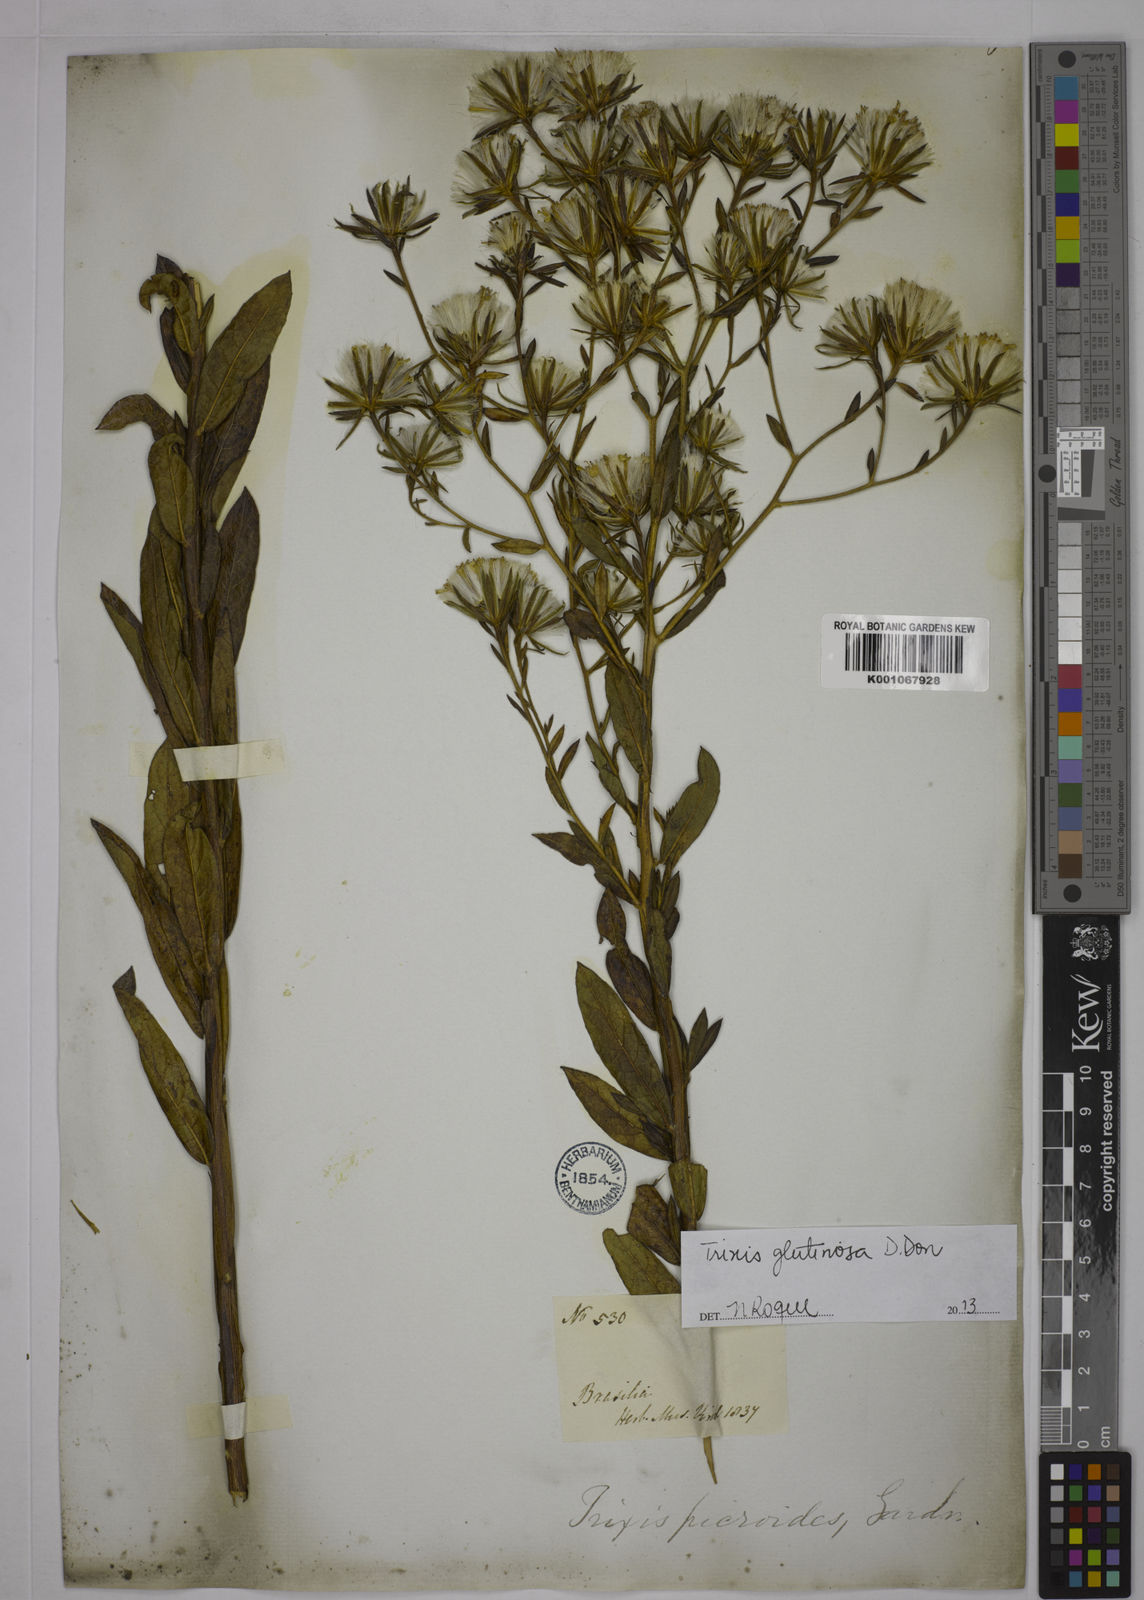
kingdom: Plantae
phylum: Tracheophyta
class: Magnoliopsida
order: Asterales
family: Asteraceae
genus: Trixis
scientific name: Trixis lessingii
